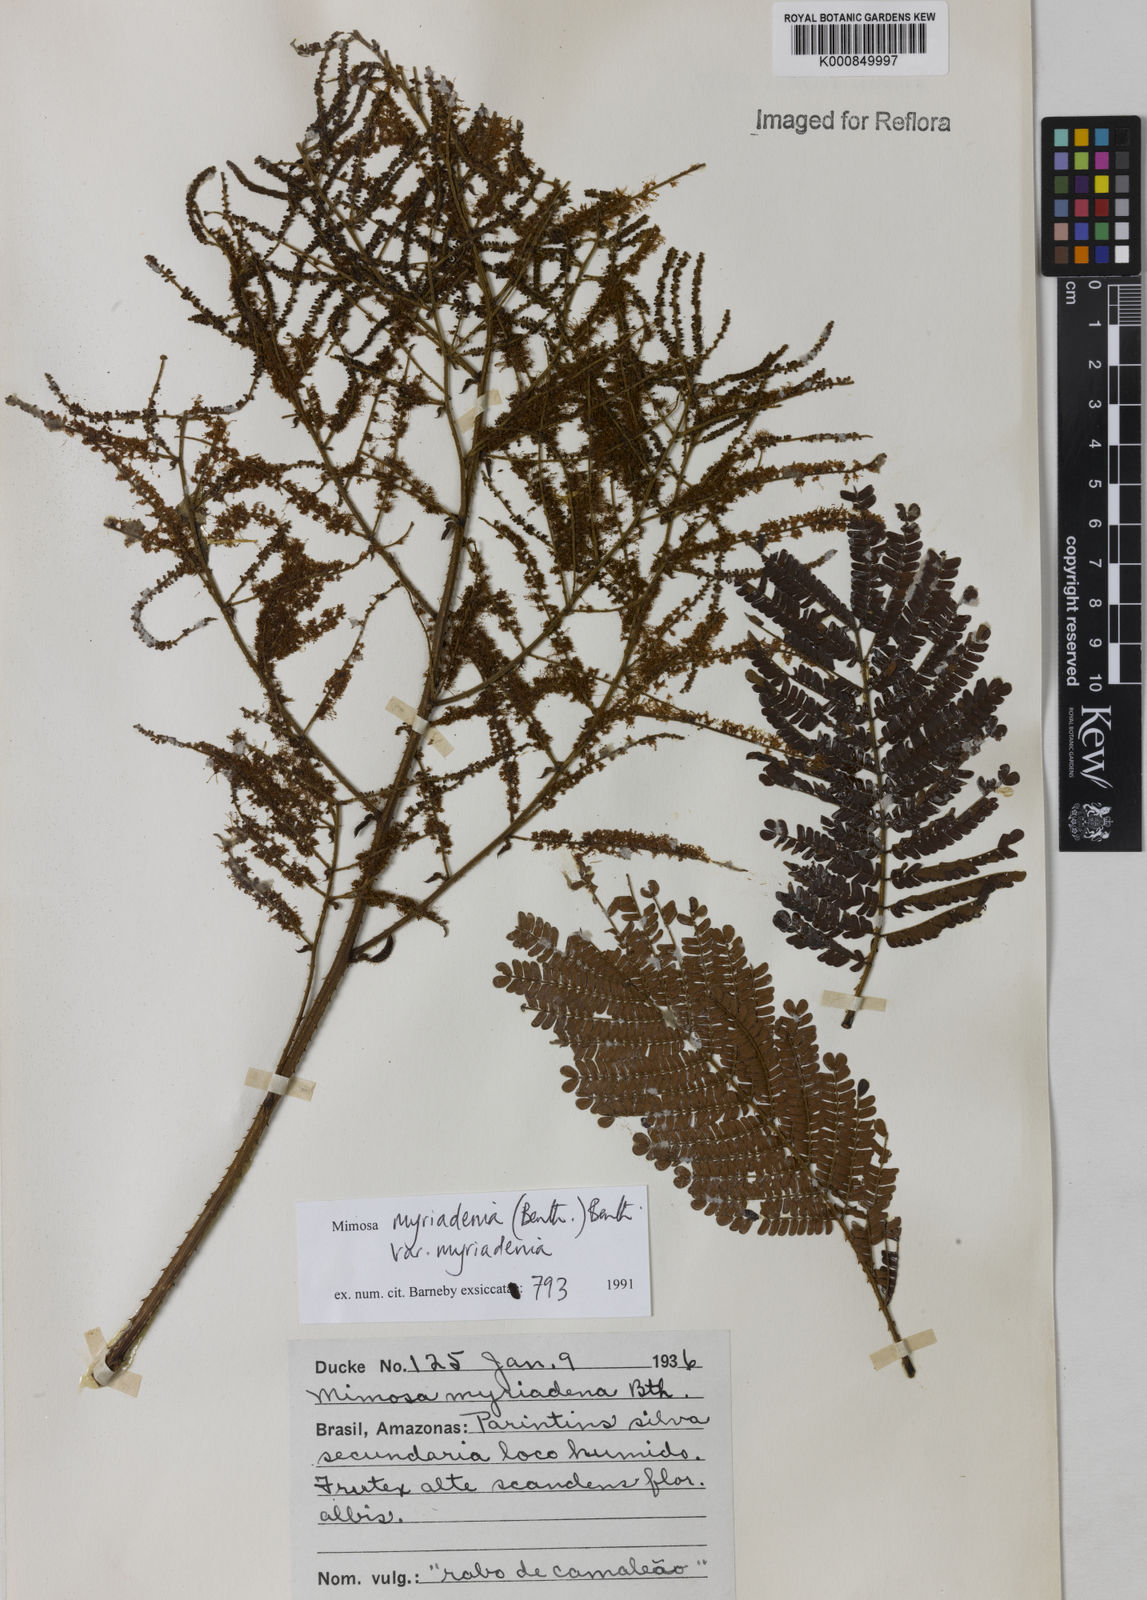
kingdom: Plantae
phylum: Tracheophyta
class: Magnoliopsida
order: Fabales
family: Fabaceae
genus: Mimosa
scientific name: Mimosa myriadenia
